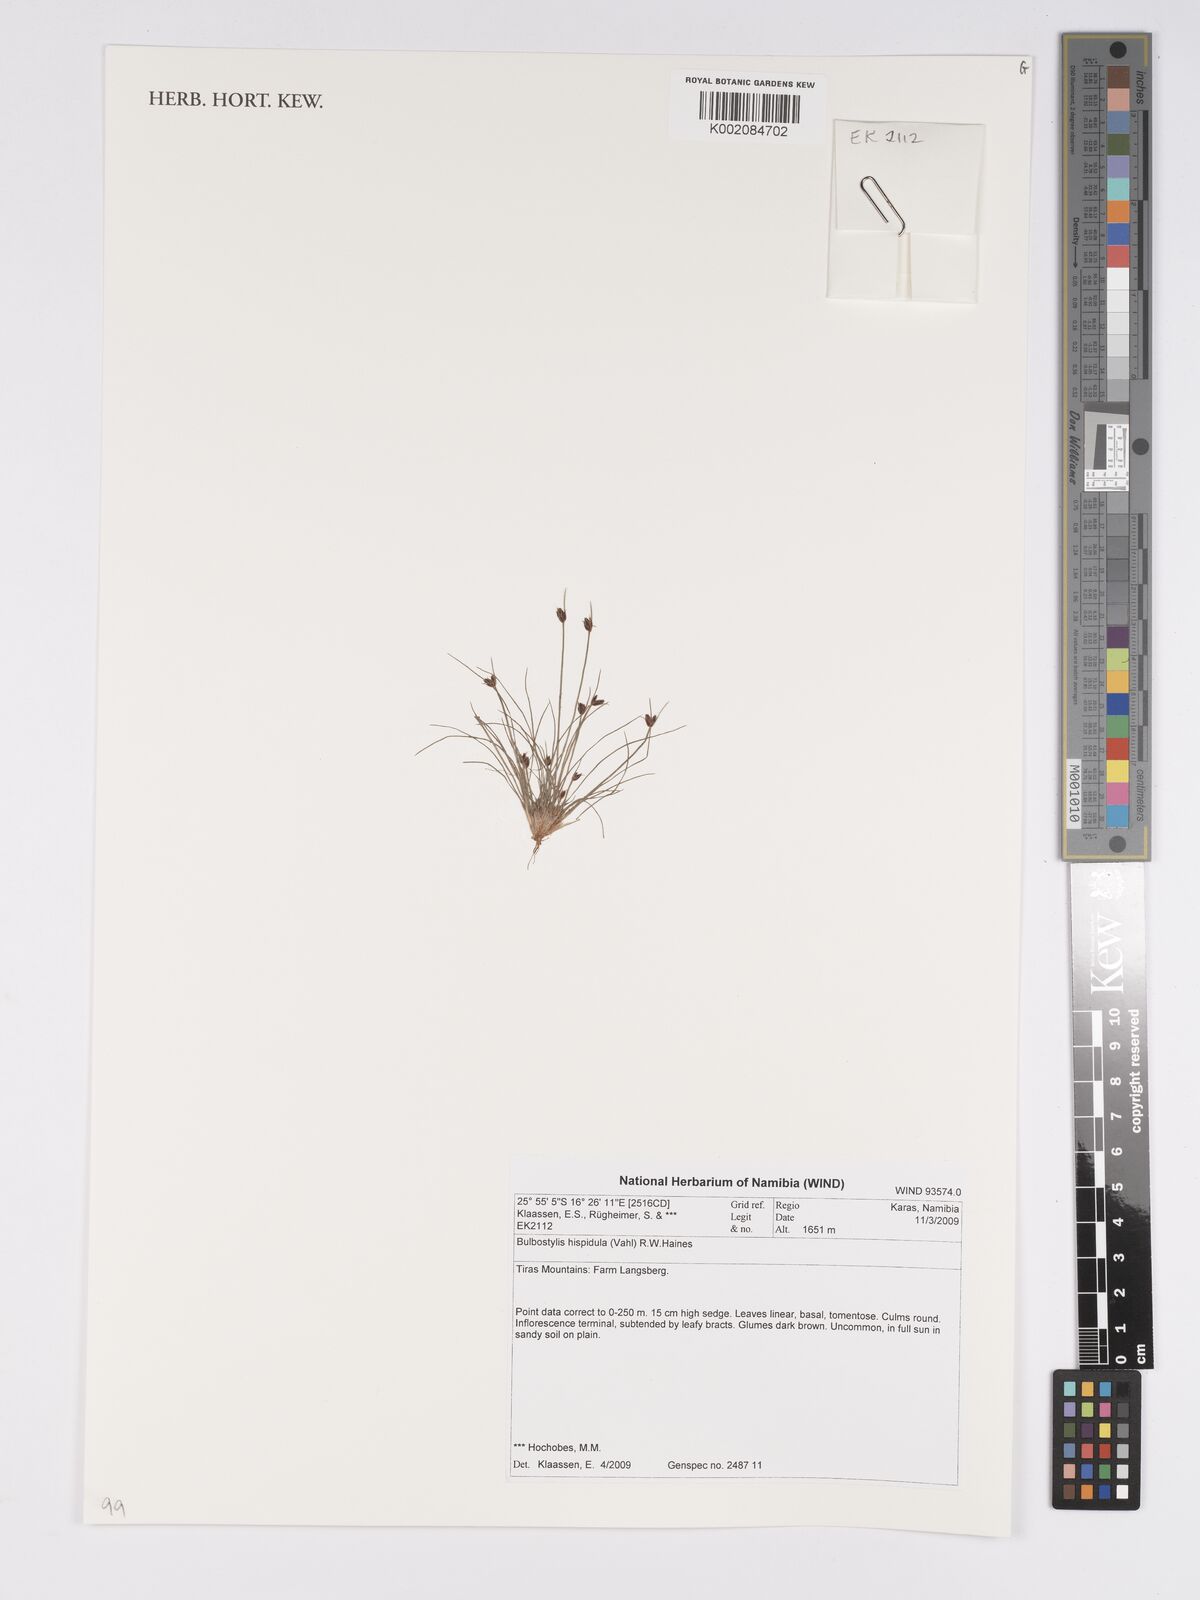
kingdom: Plantae
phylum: Tracheophyta
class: Liliopsida
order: Poales
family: Cyperaceae
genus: Bulbostylis
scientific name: Bulbostylis hispidula
